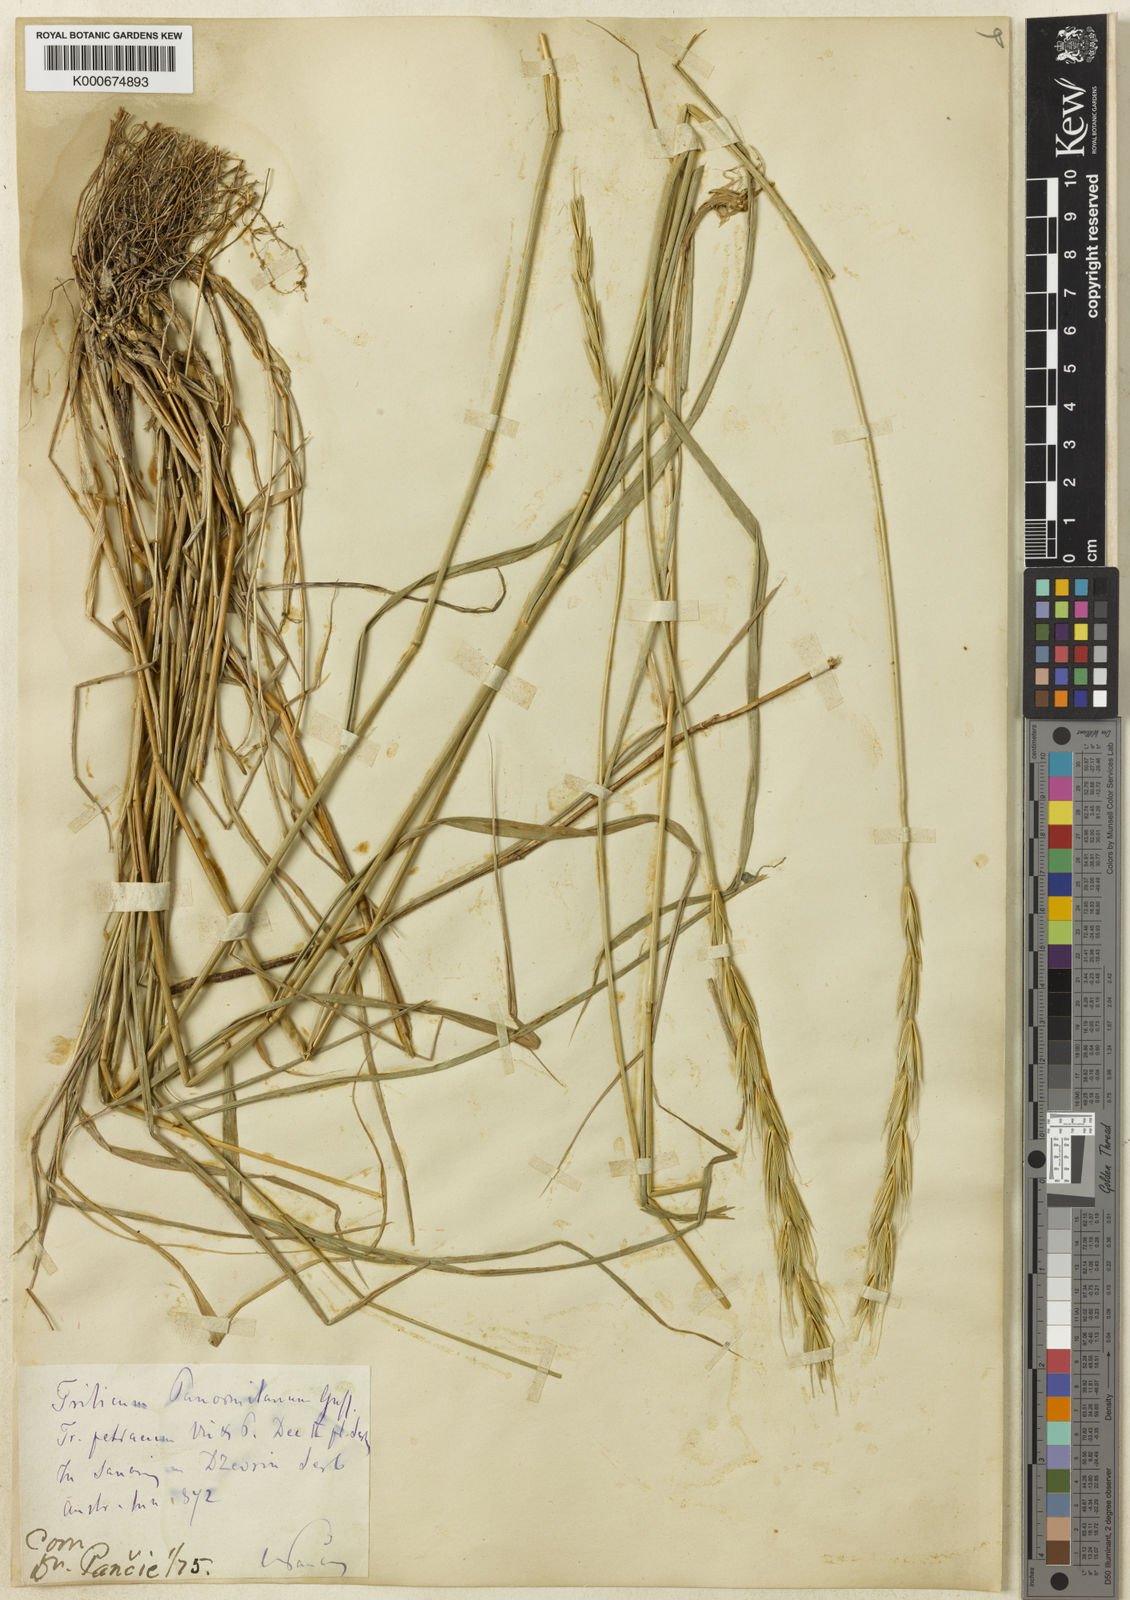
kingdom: Plantae
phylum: Tracheophyta
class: Liliopsida
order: Poales
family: Poaceae
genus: Elymus
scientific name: Elymus panormitanus
